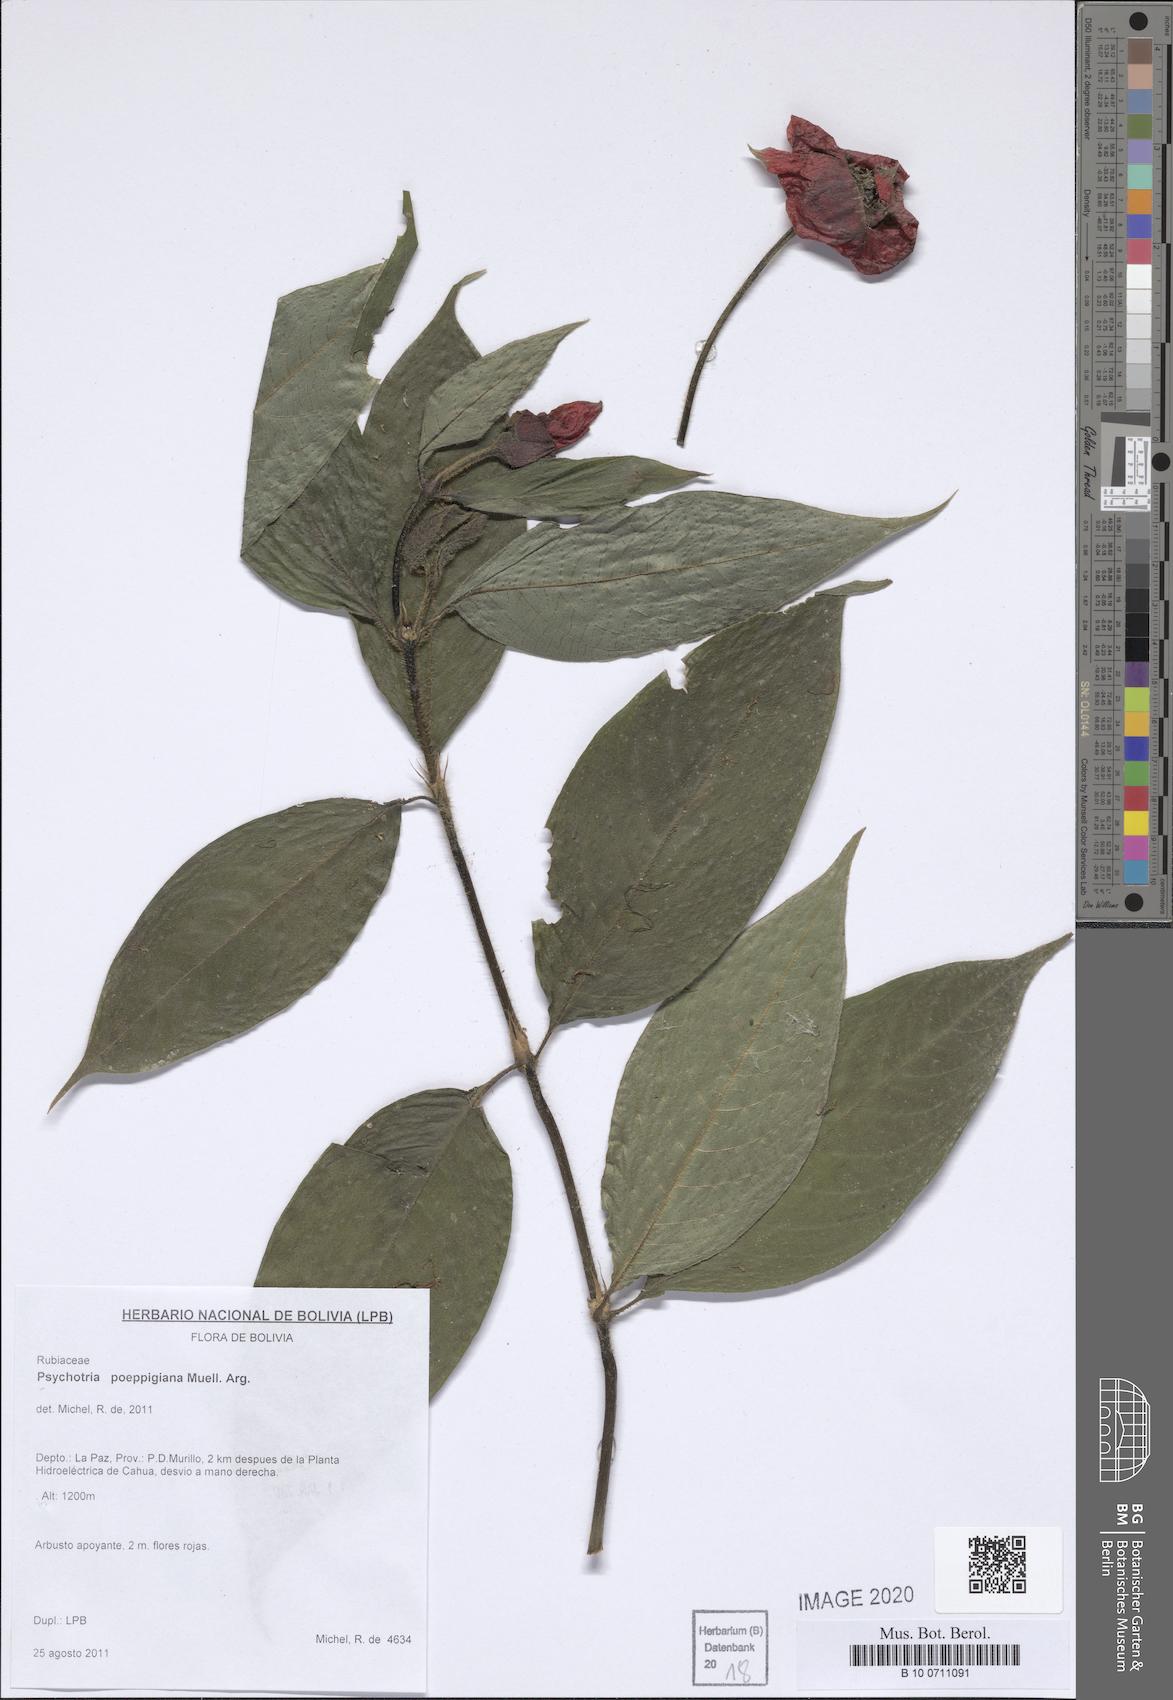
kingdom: Plantae
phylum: Tracheophyta
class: Magnoliopsida
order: Gentianales
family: Rubiaceae
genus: Palicourea
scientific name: Palicourea tomentosa
